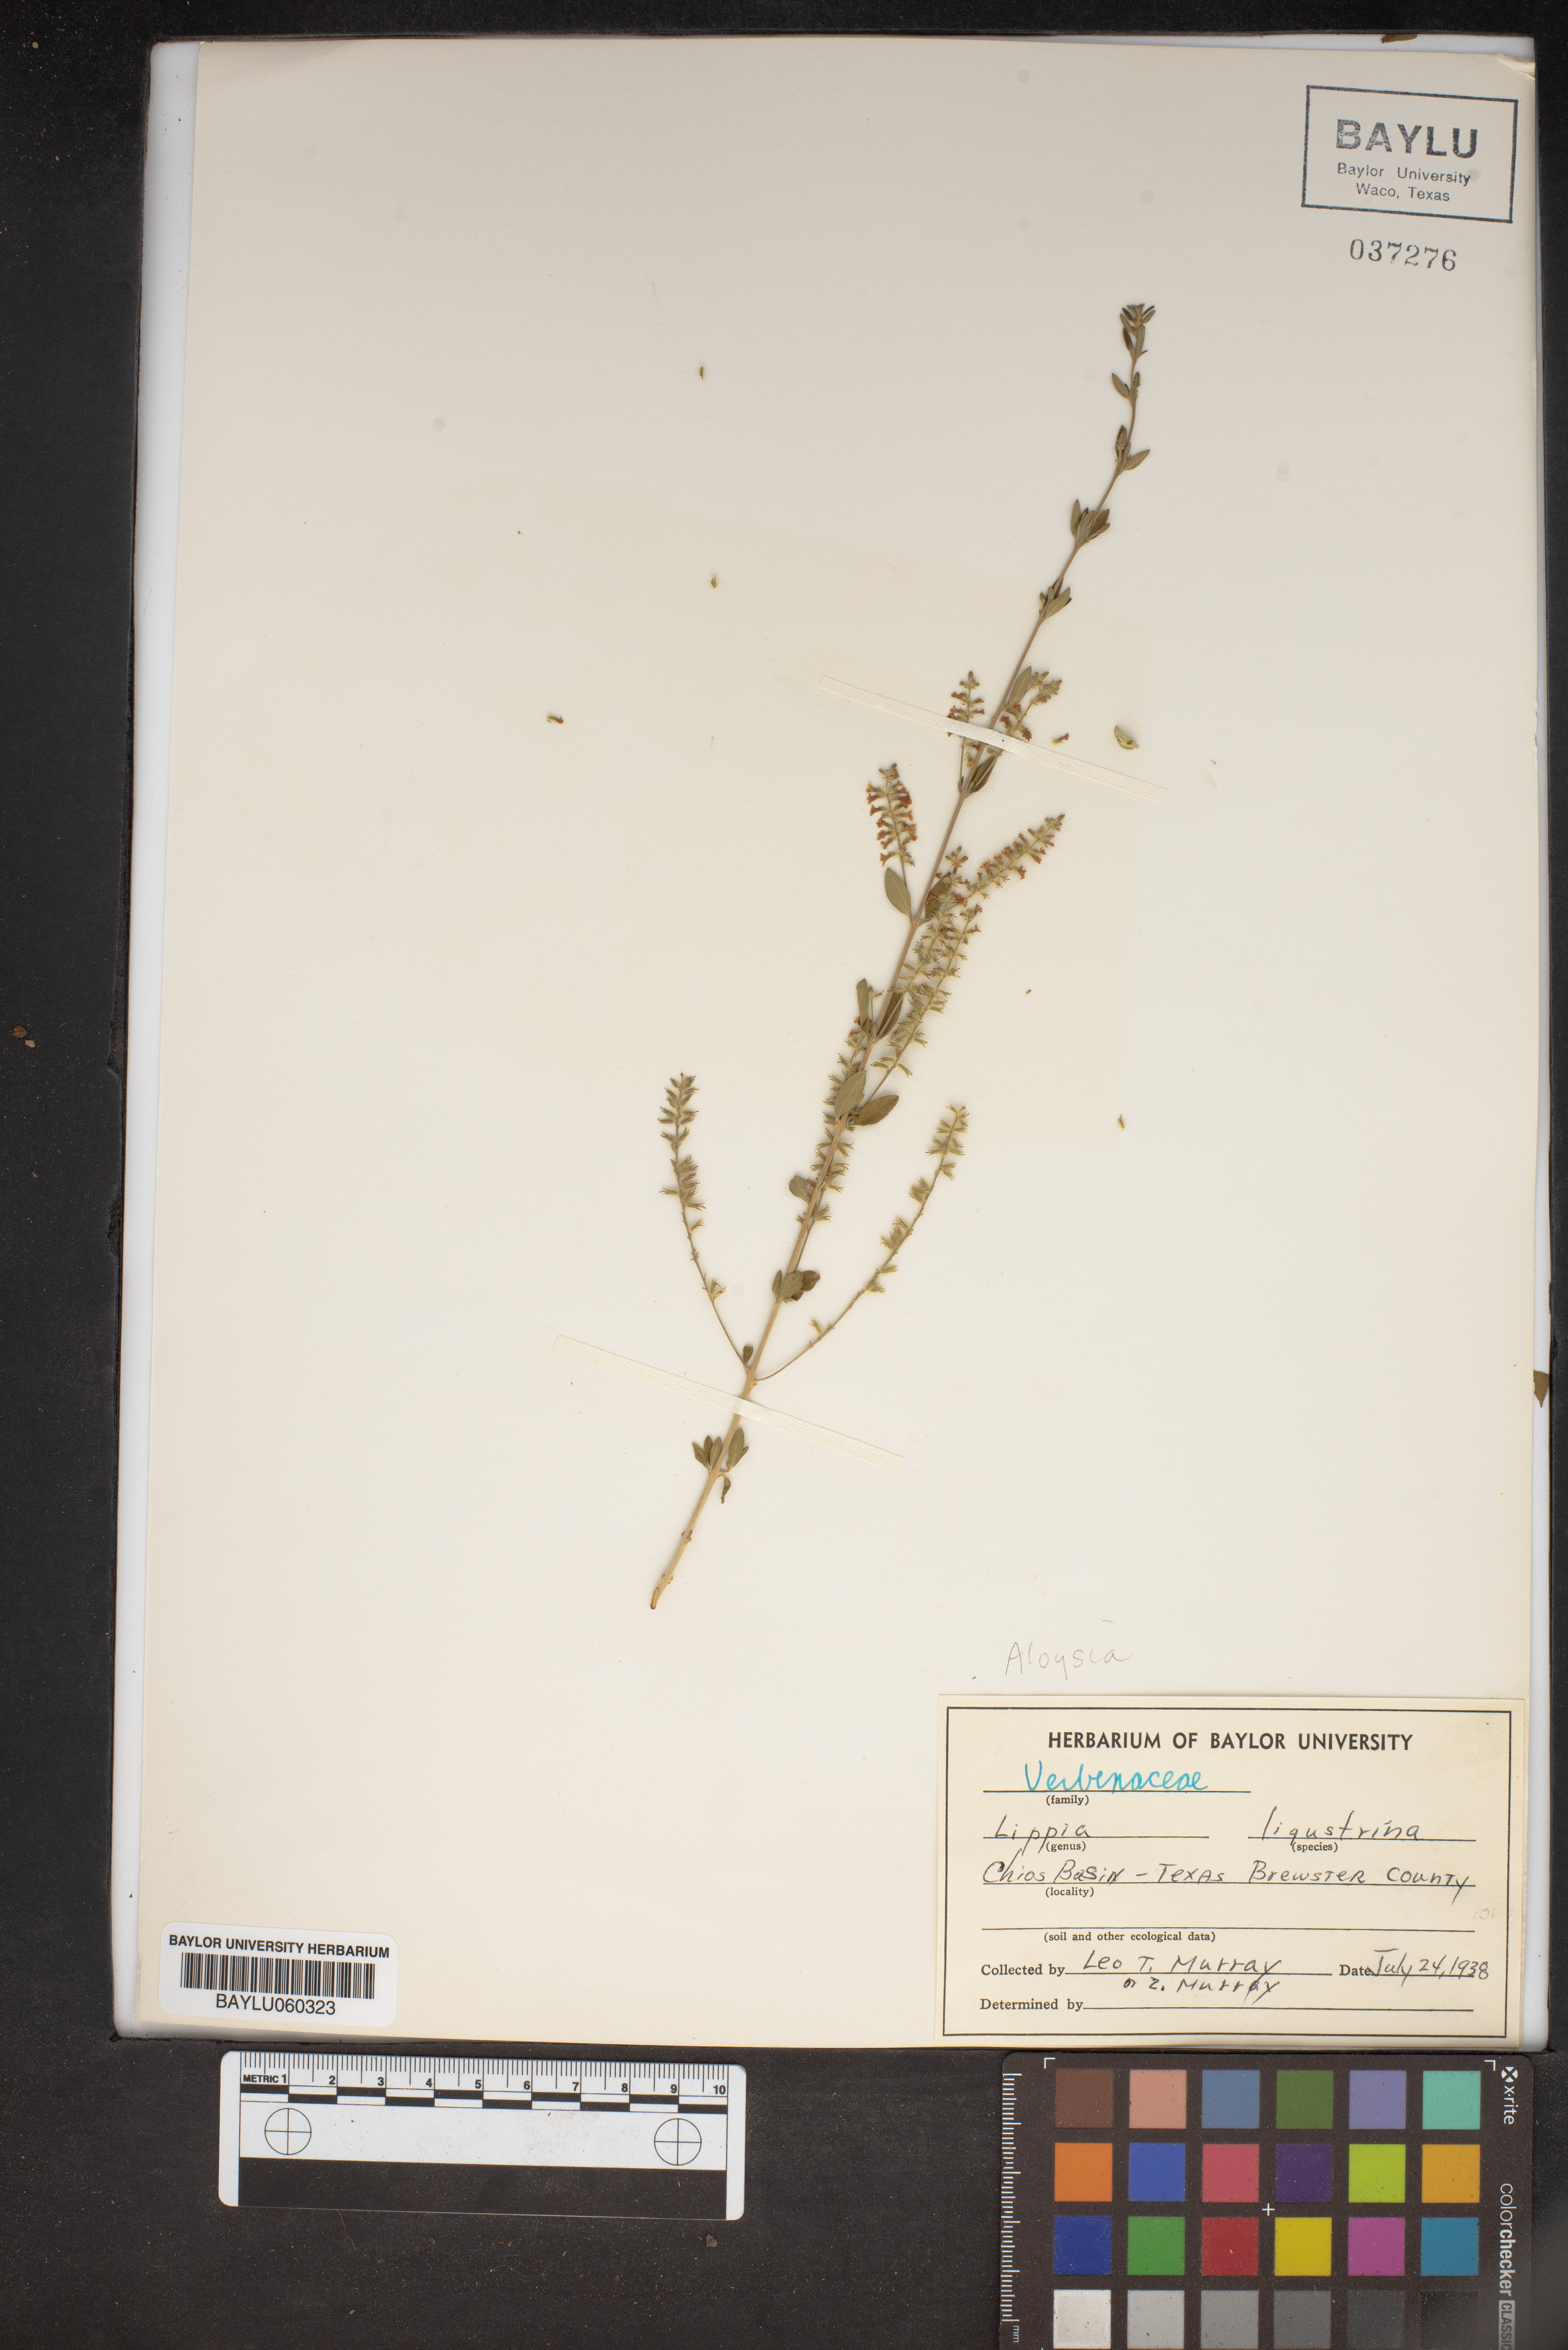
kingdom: Plantae
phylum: Tracheophyta
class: Magnoliopsida
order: Lamiales
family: Verbenaceae
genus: Mulguraea
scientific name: Mulguraea ligustrina
